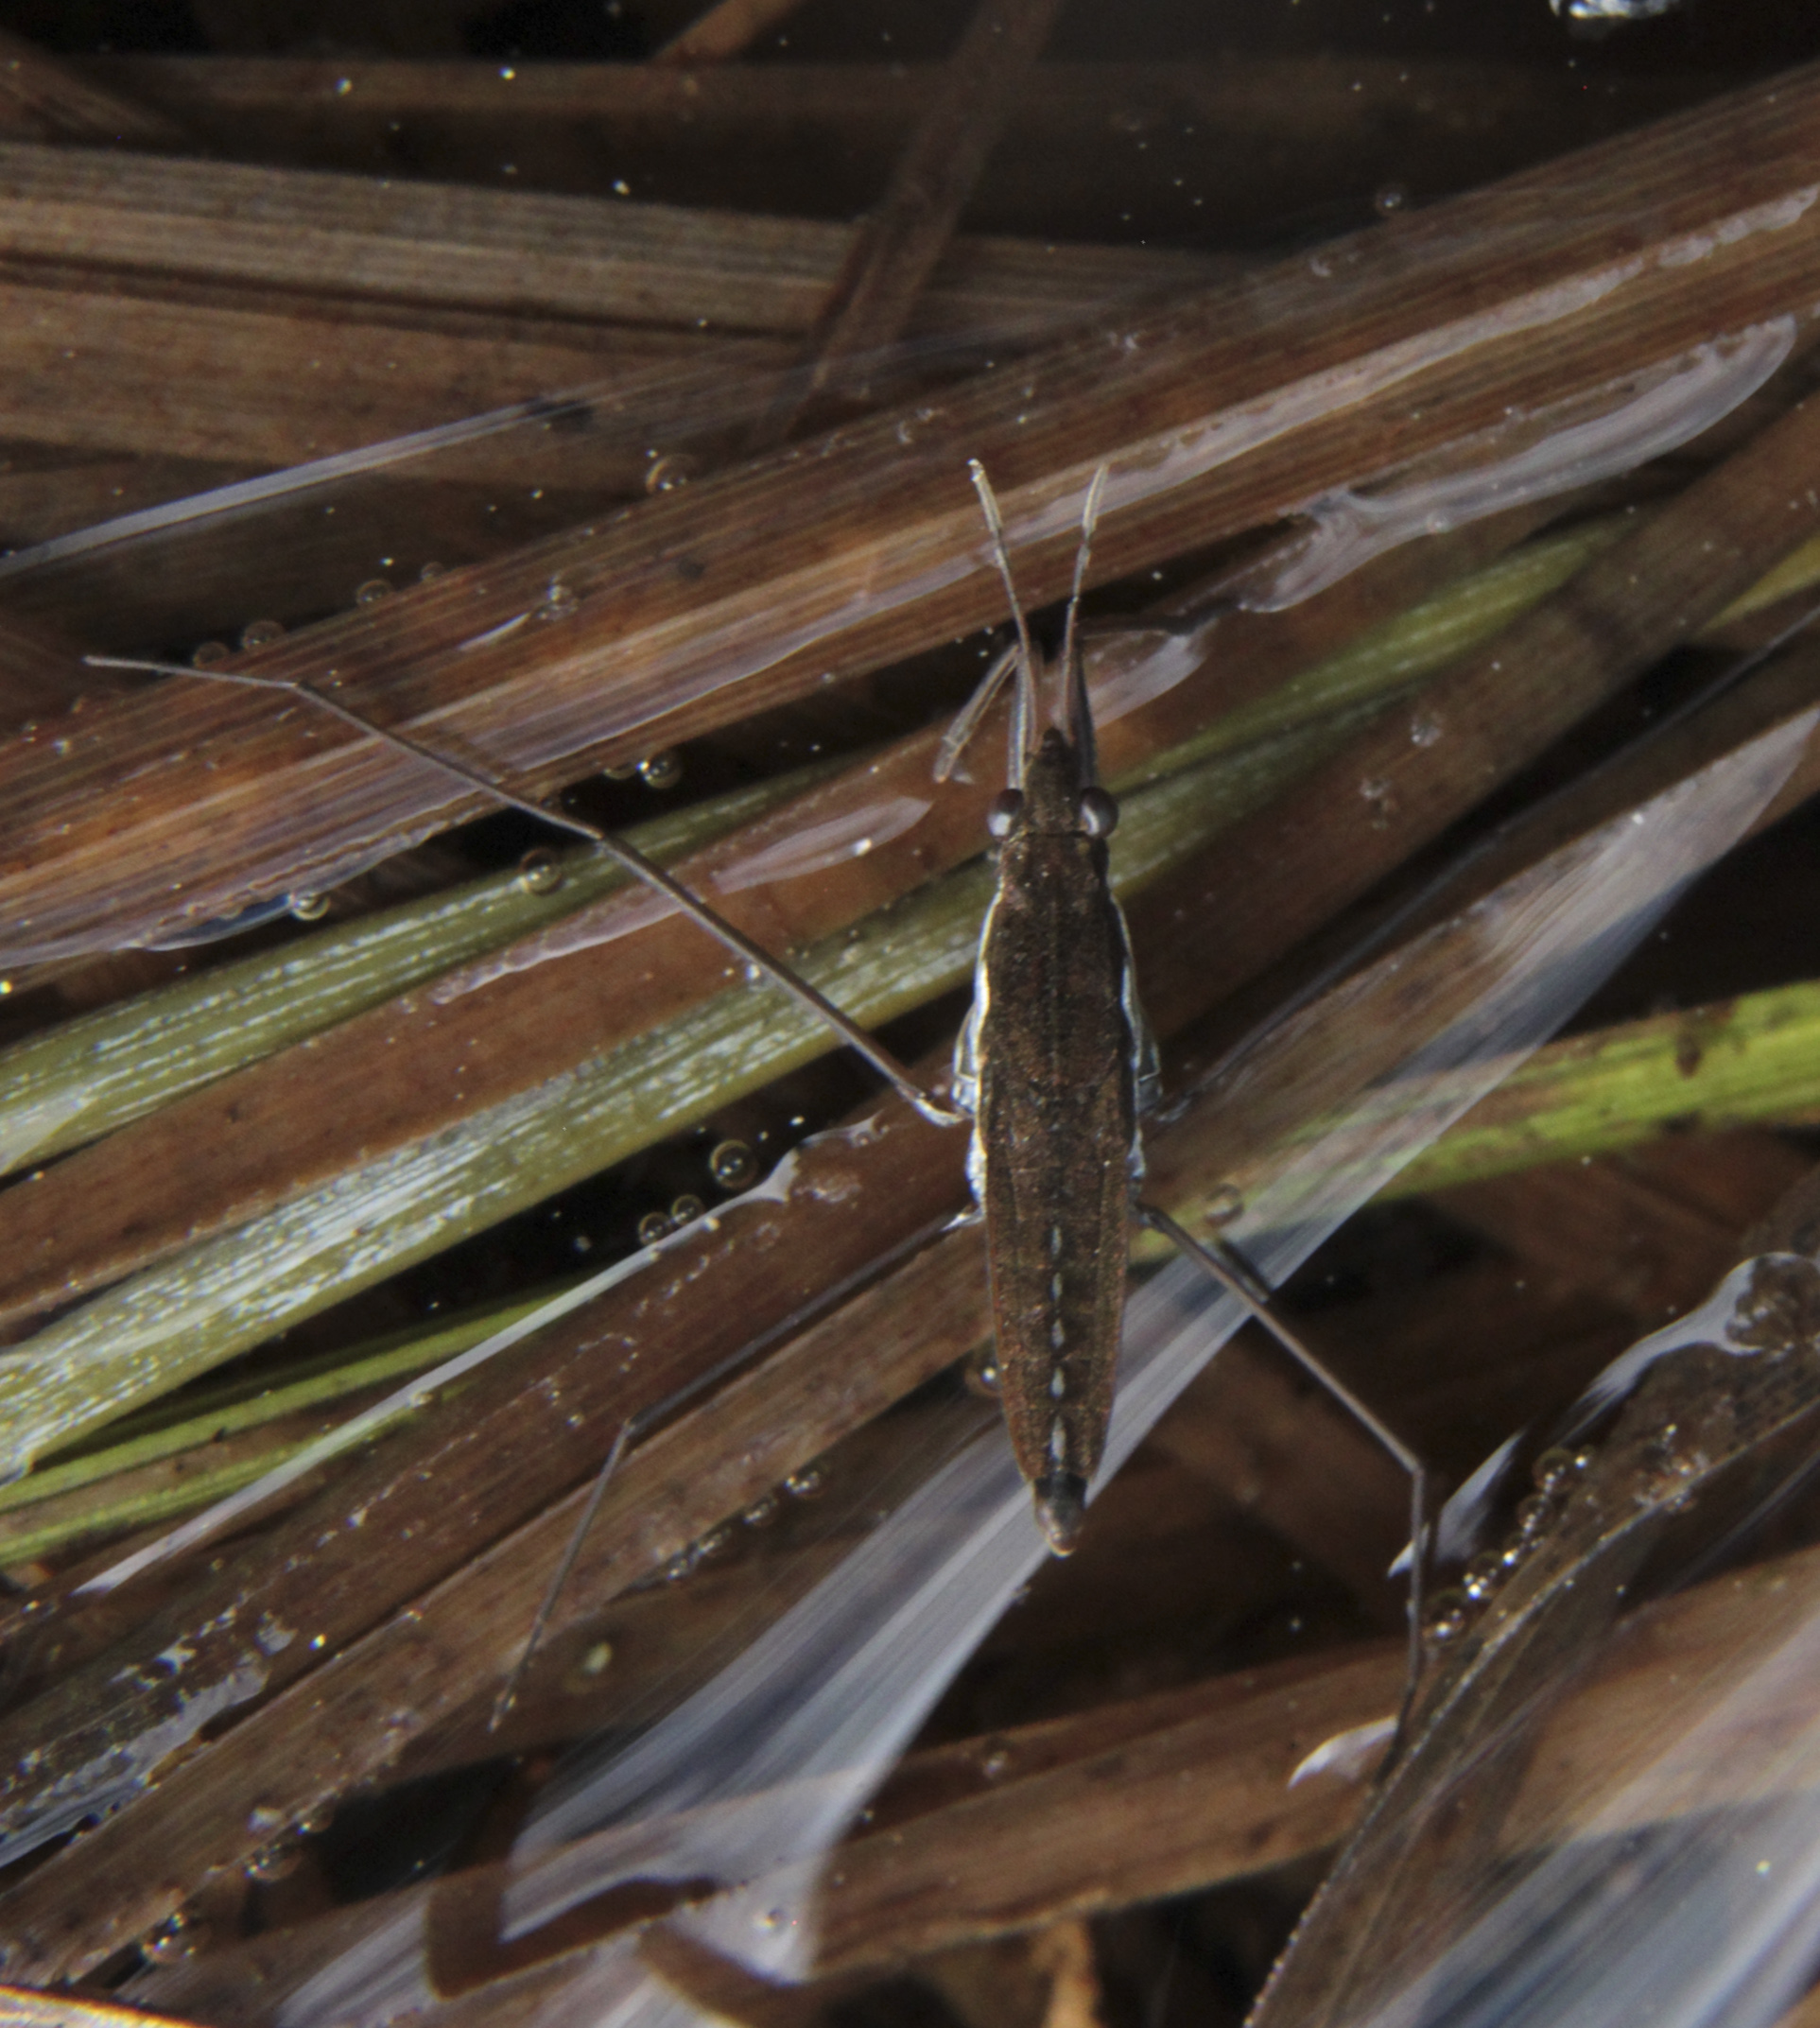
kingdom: Animalia
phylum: Arthropoda
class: Insecta
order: Hemiptera
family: Gerridae
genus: Gerris
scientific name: Gerris lateralis
